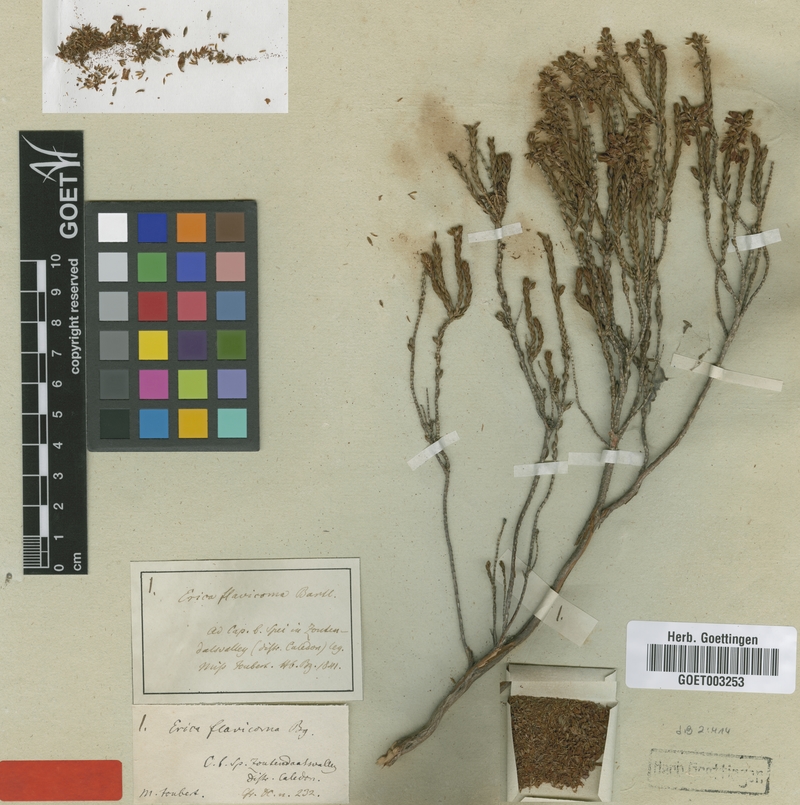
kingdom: Plantae
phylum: Tracheophyta
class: Magnoliopsida
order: Ericales
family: Ericaceae
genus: Erica
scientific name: Erica flavicoma
